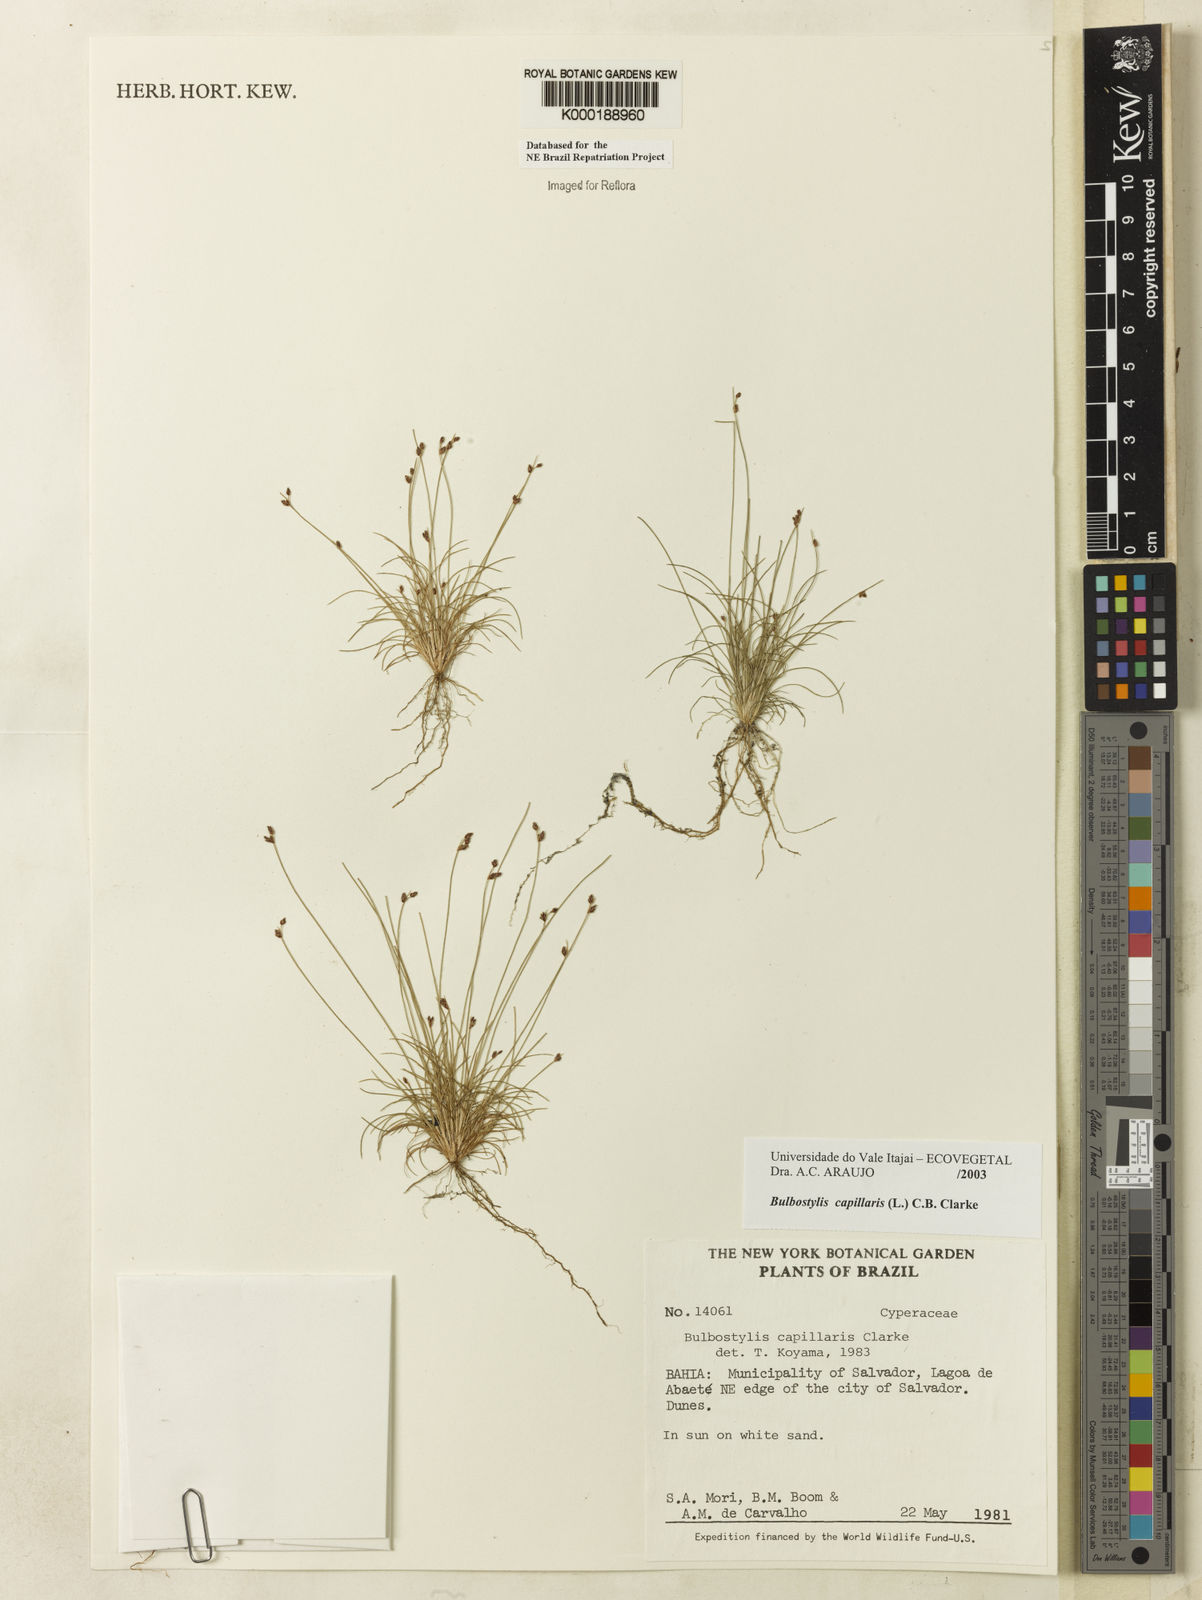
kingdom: Plantae
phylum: Tracheophyta
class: Liliopsida
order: Poales
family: Cyperaceae
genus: Bulbostylis
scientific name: Bulbostylis capillaris
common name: Densetuft hairsedge
